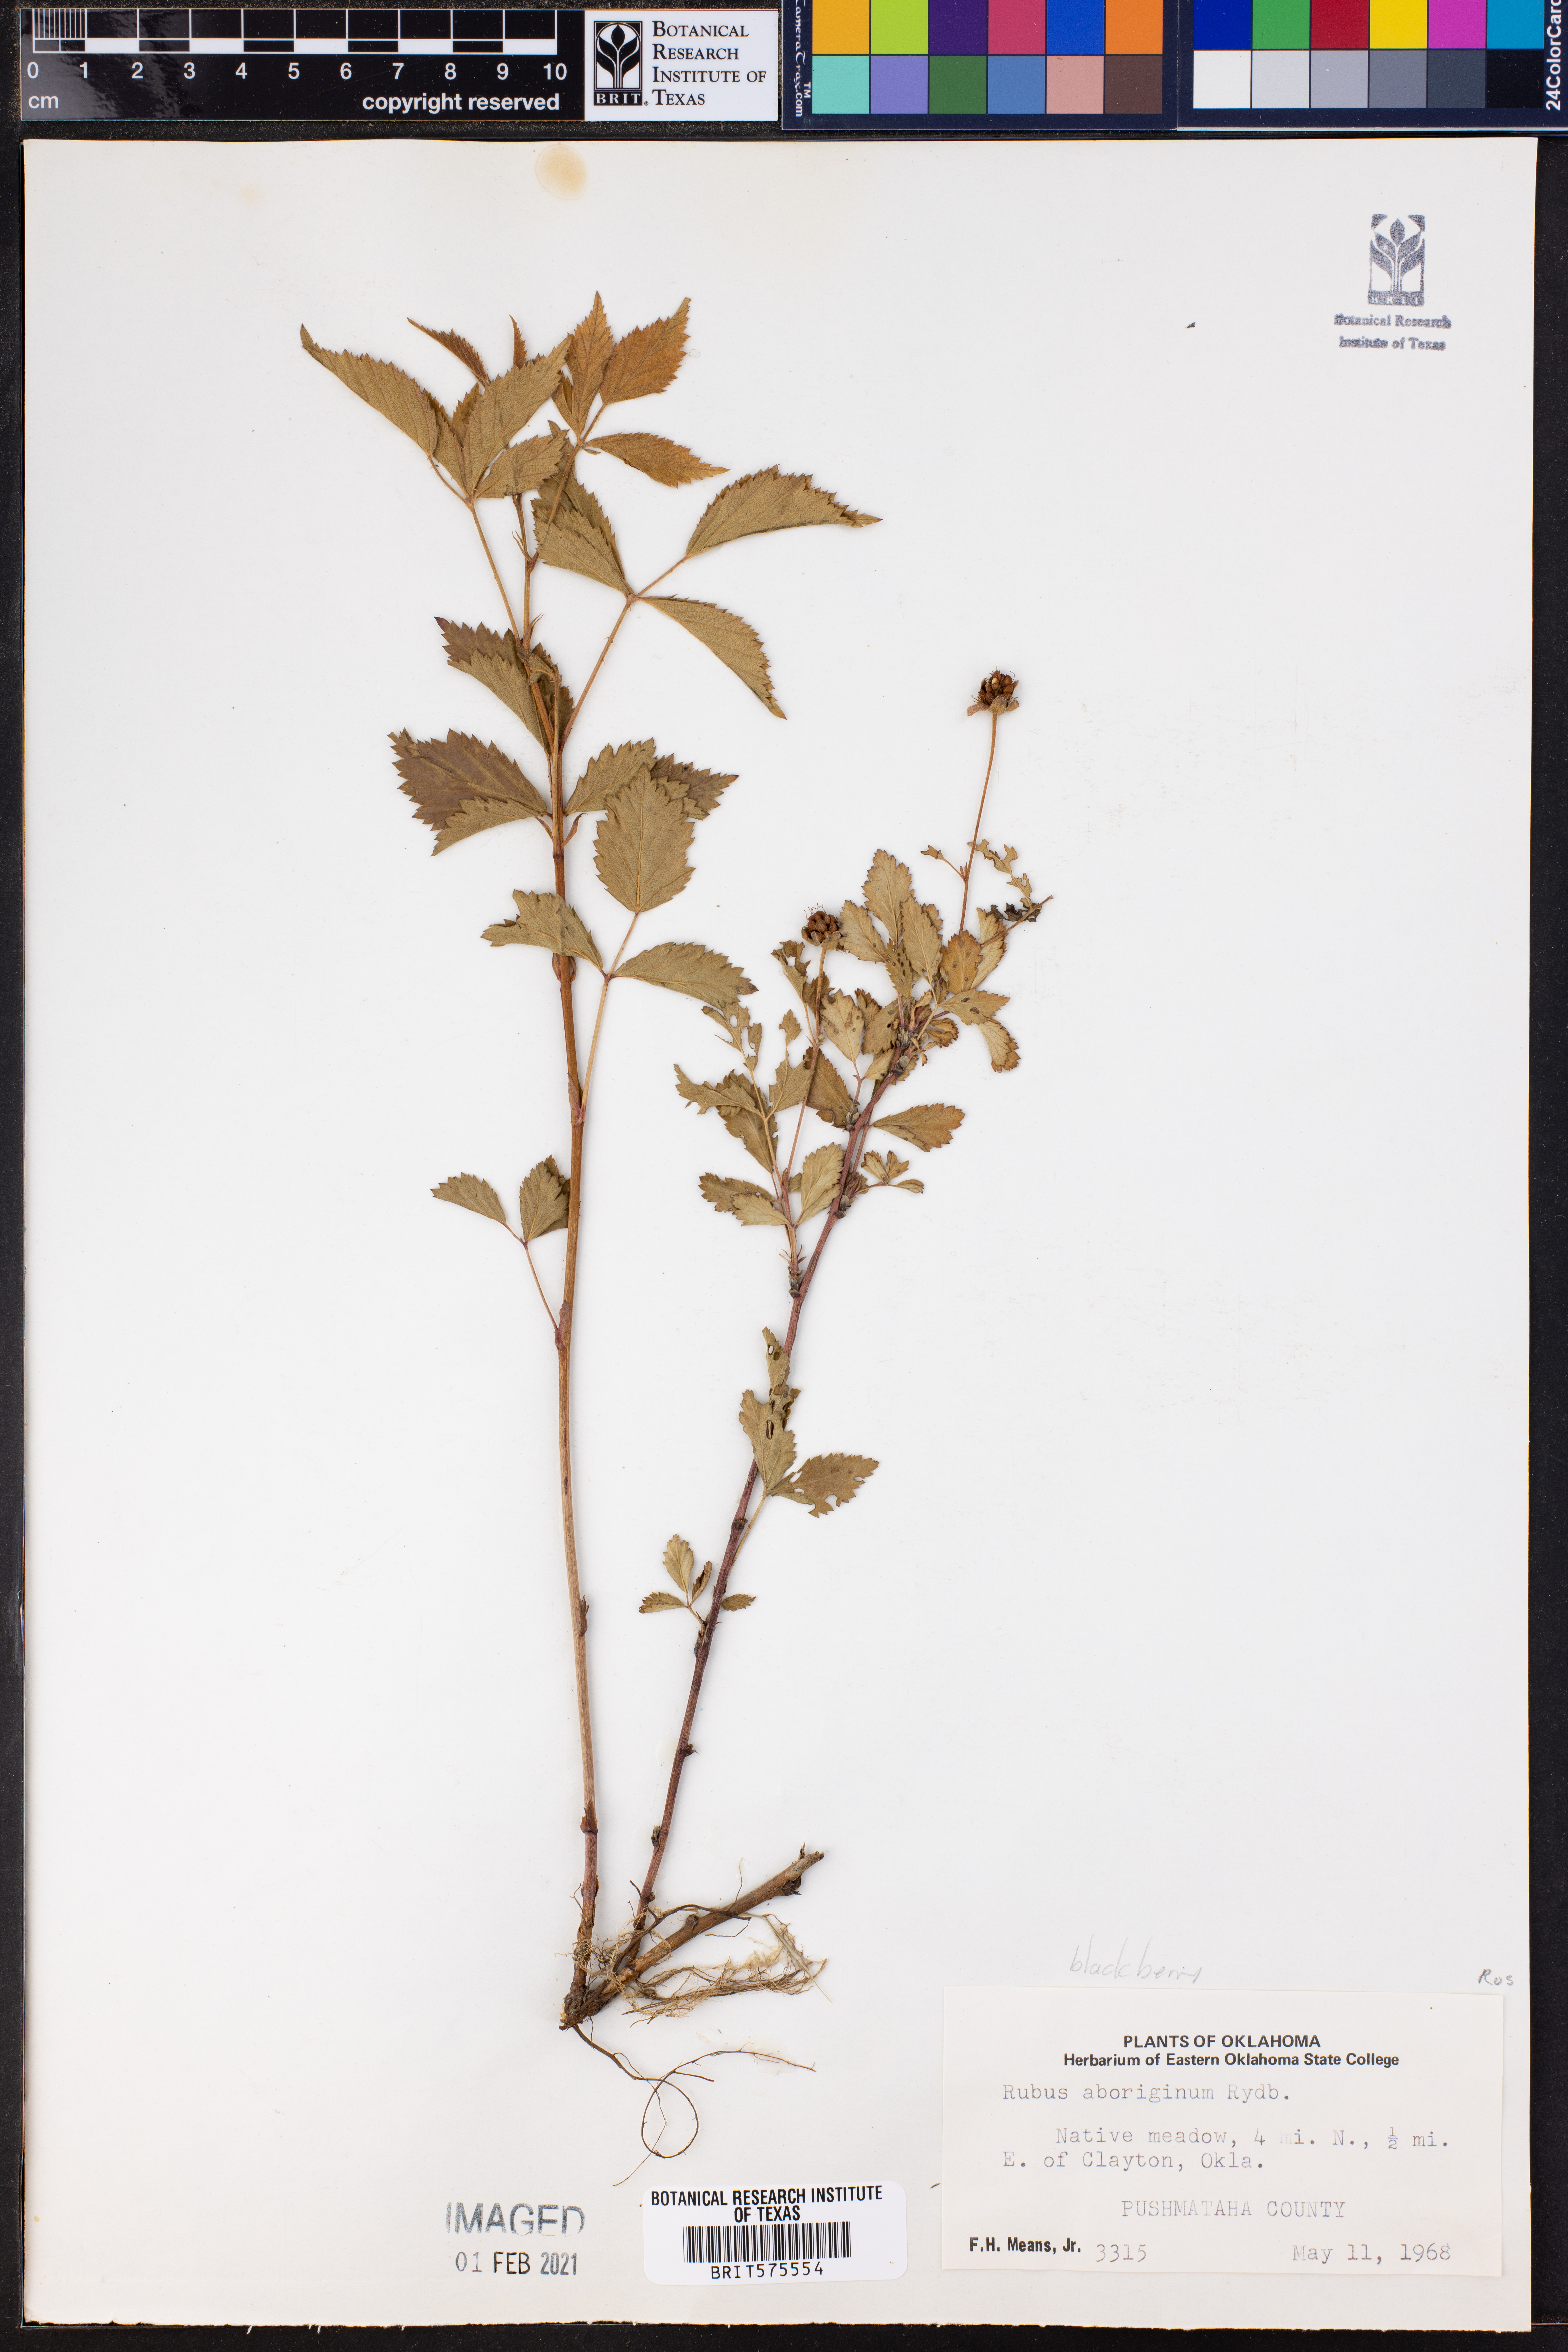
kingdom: Plantae
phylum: Tracheophyta
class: Magnoliopsida
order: Rosales
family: Rosaceae
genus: Rubus
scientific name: Rubus aboriginum
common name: Mayes dewberry
